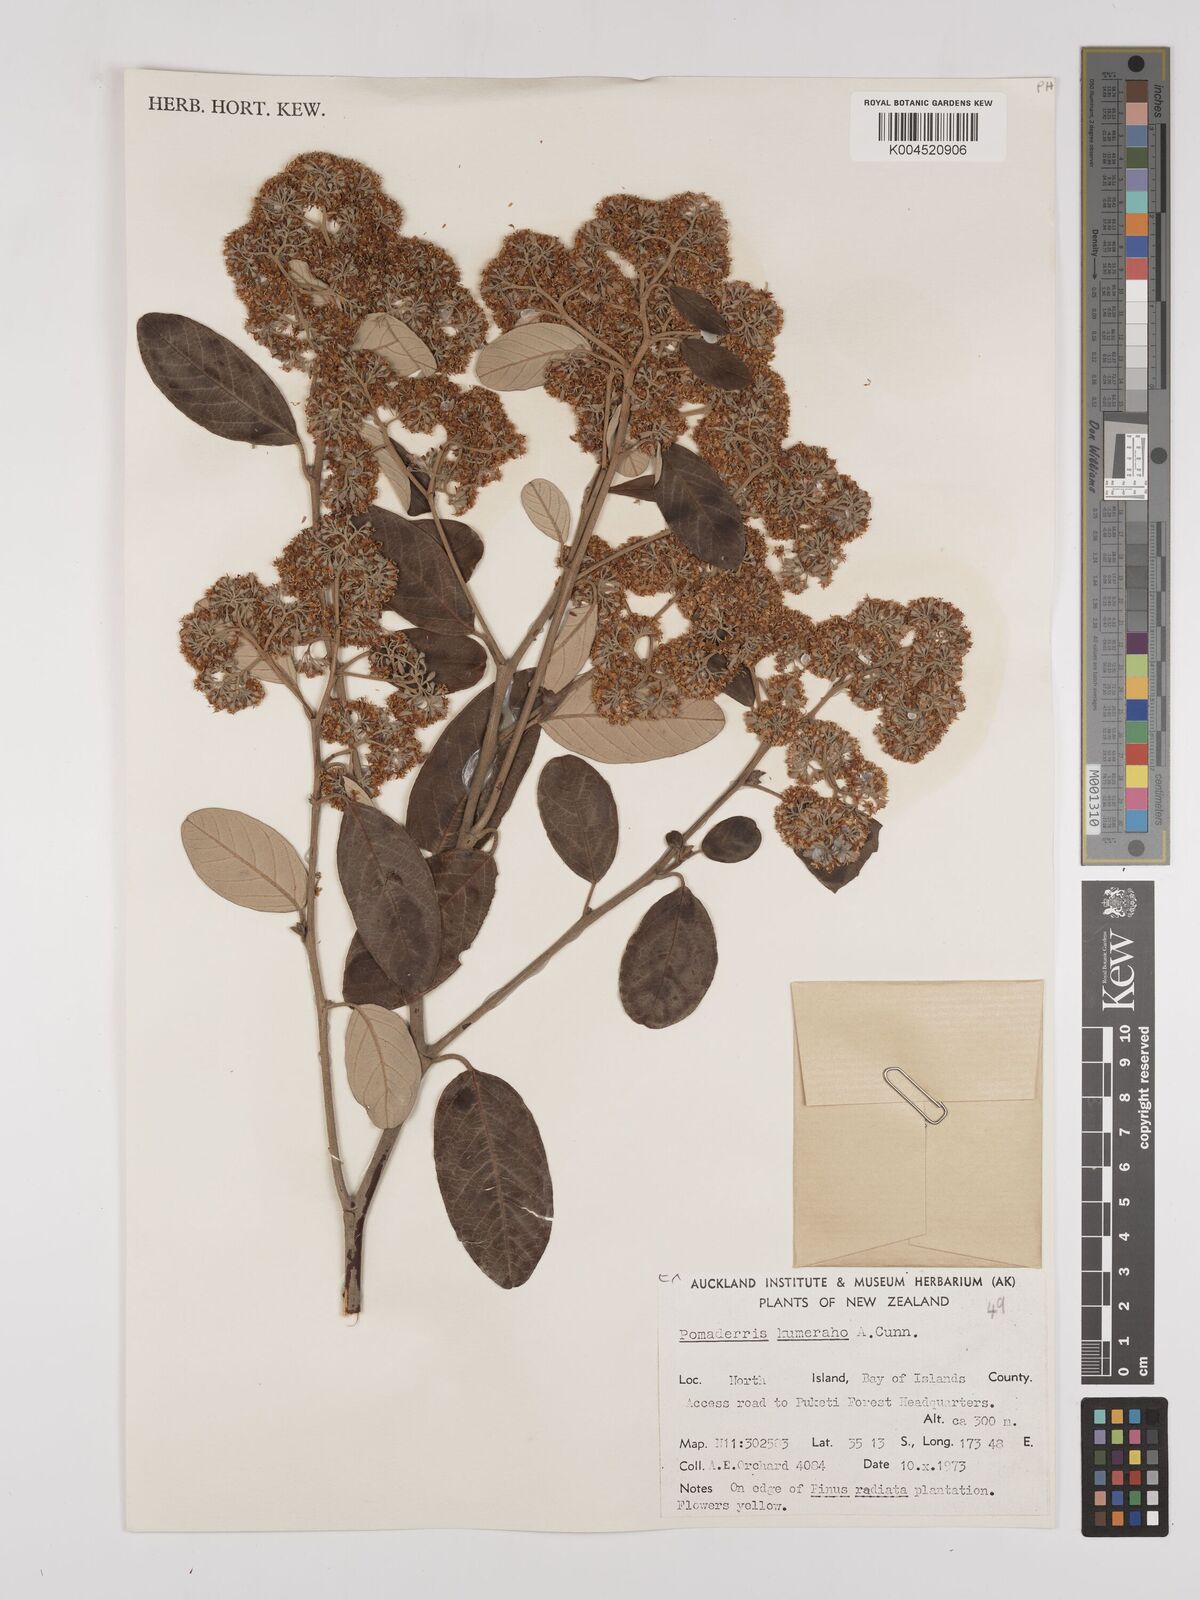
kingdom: Plantae
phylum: Tracheophyta
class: Magnoliopsida
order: Rosales
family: Rhamnaceae
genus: Pomaderris
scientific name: Pomaderris kumeraho
